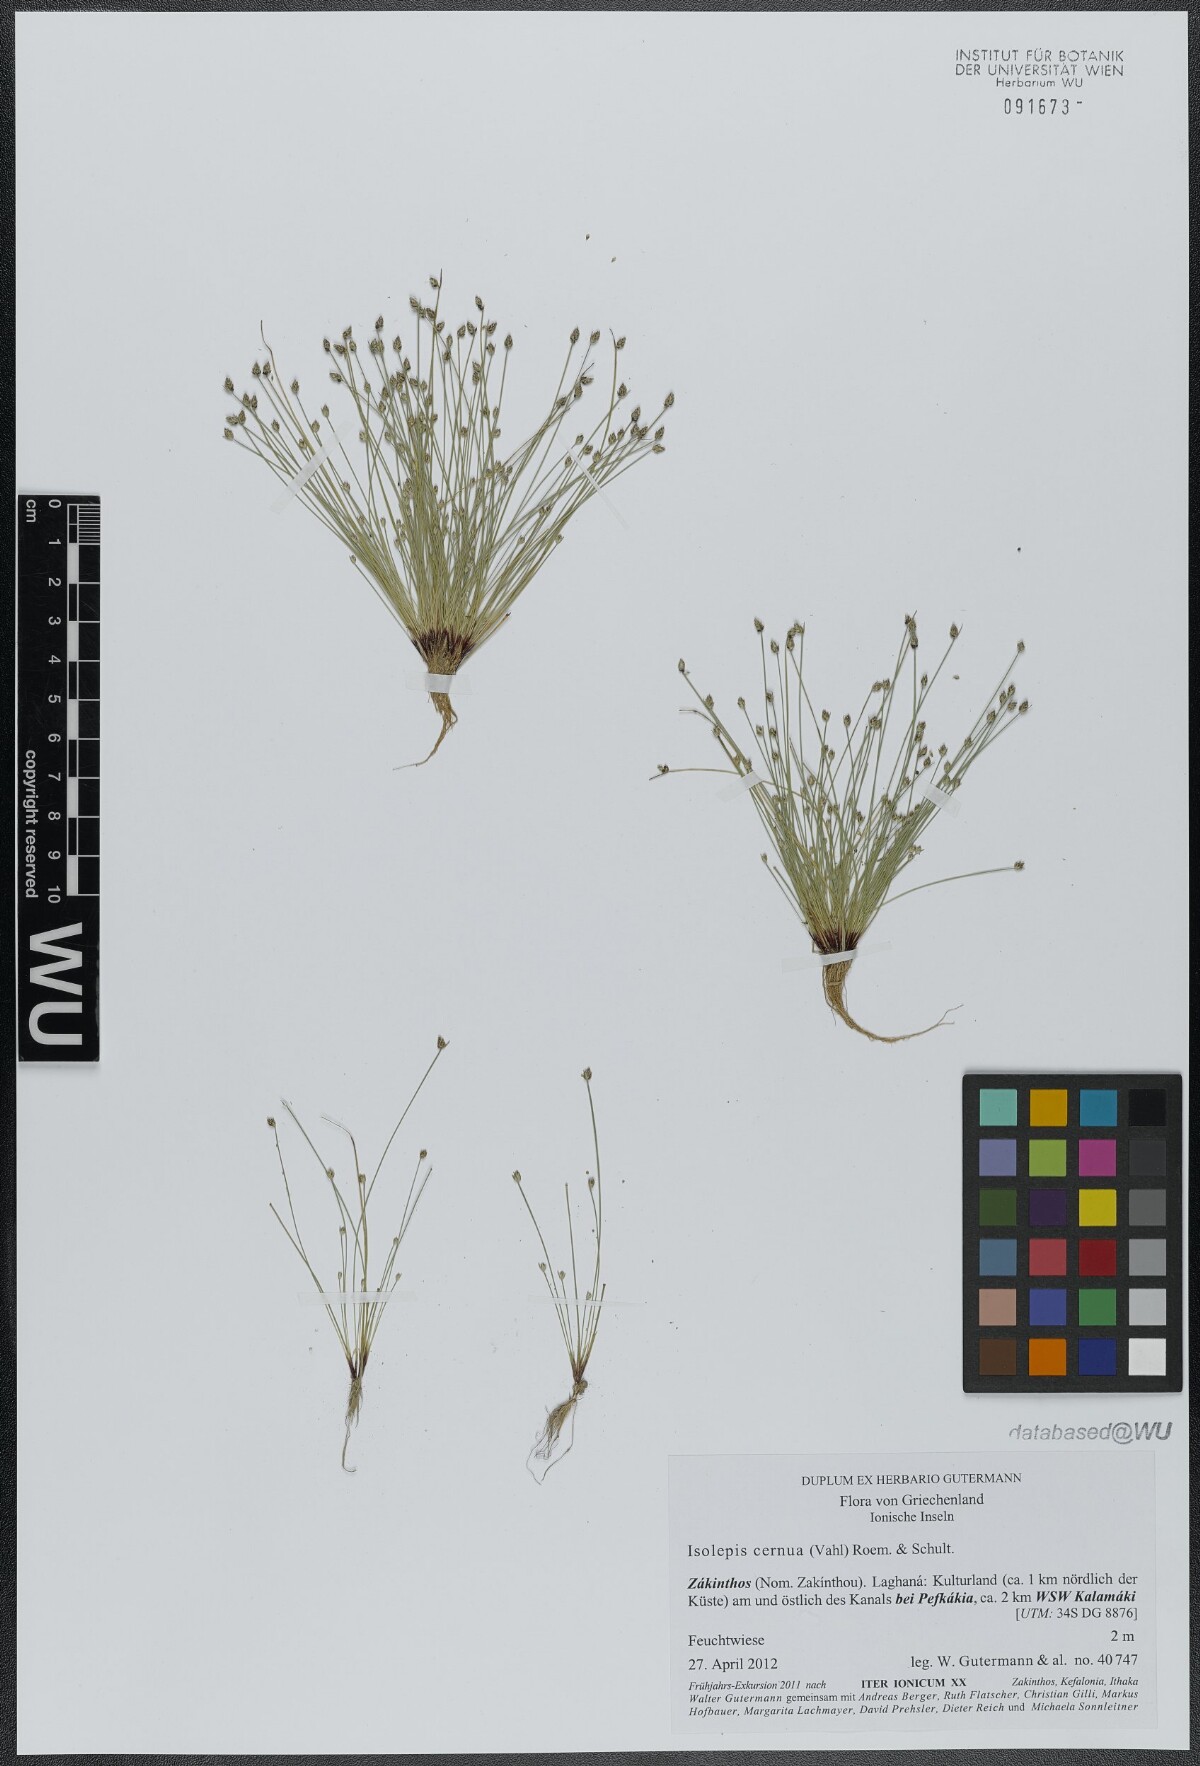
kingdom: Plantae
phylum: Tracheophyta
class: Liliopsida
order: Poales
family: Cyperaceae
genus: Isolepis
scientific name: Isolepis cernua
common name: Slender club-rush
